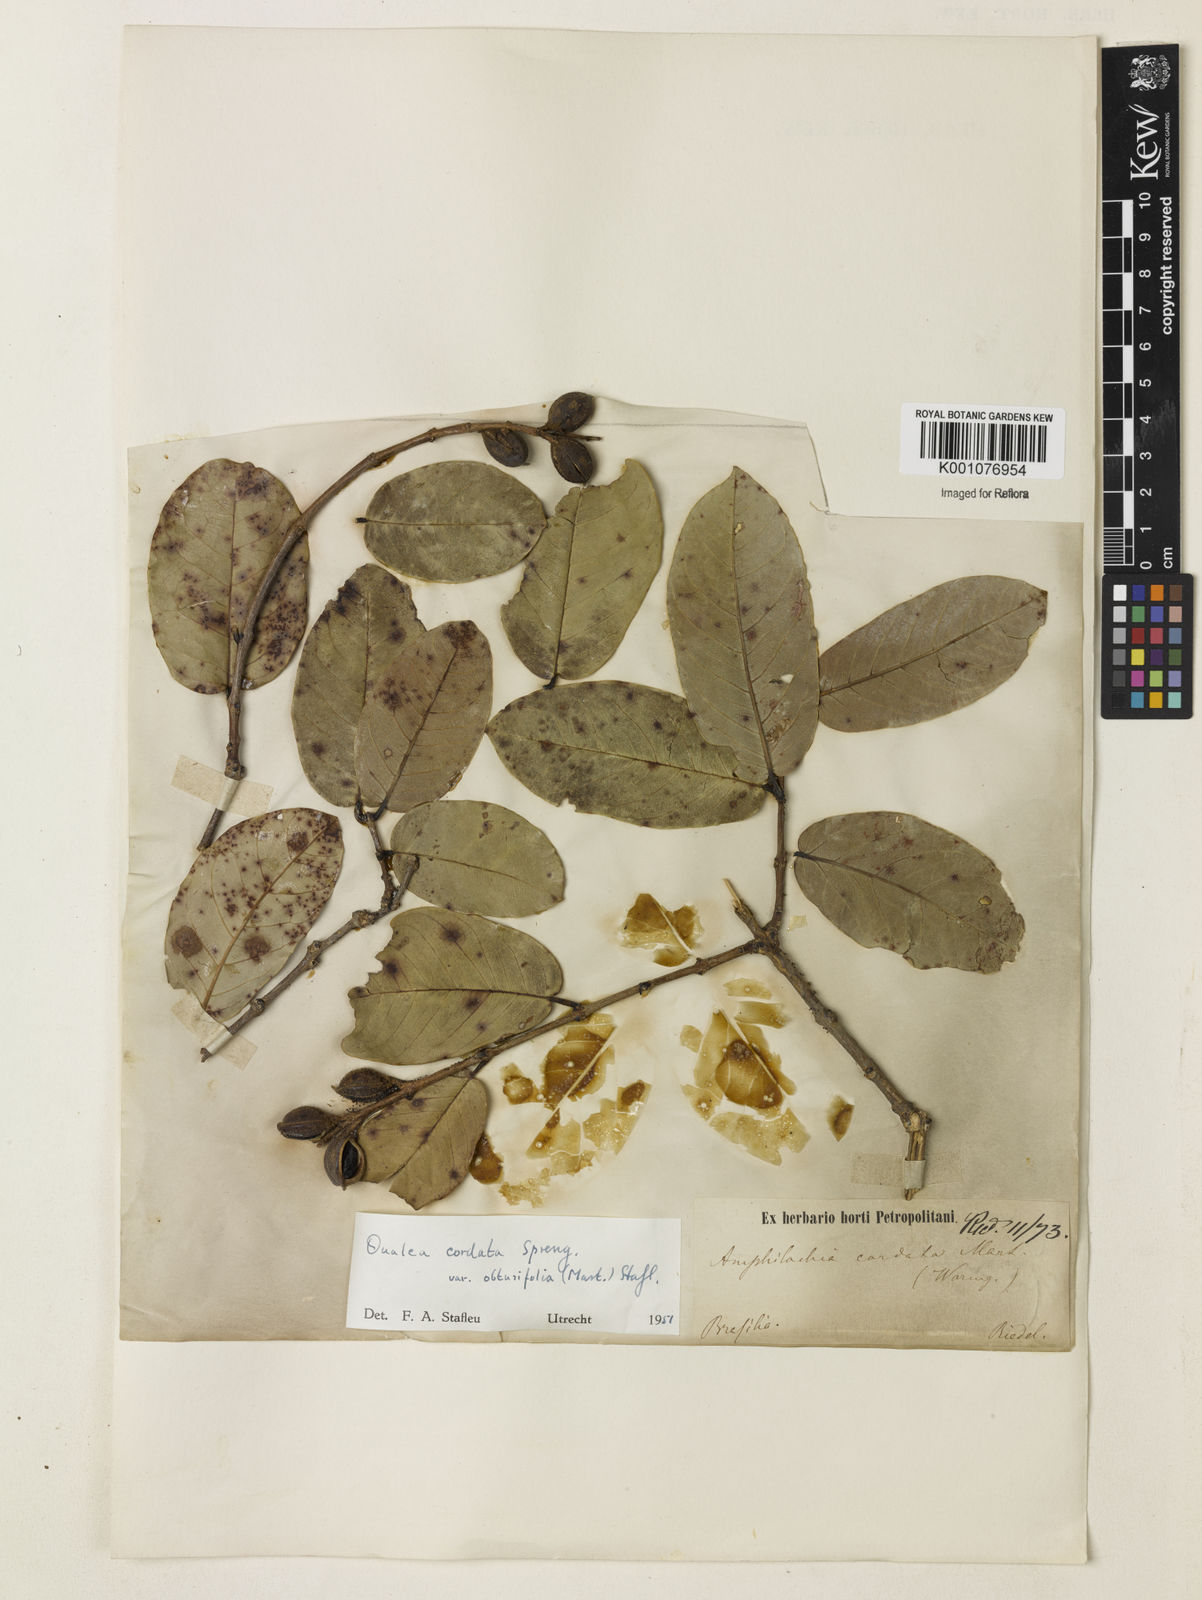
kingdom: Plantae
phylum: Tracheophyta
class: Magnoliopsida
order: Myrtales
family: Vochysiaceae
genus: Qualea
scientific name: Qualea cordata
